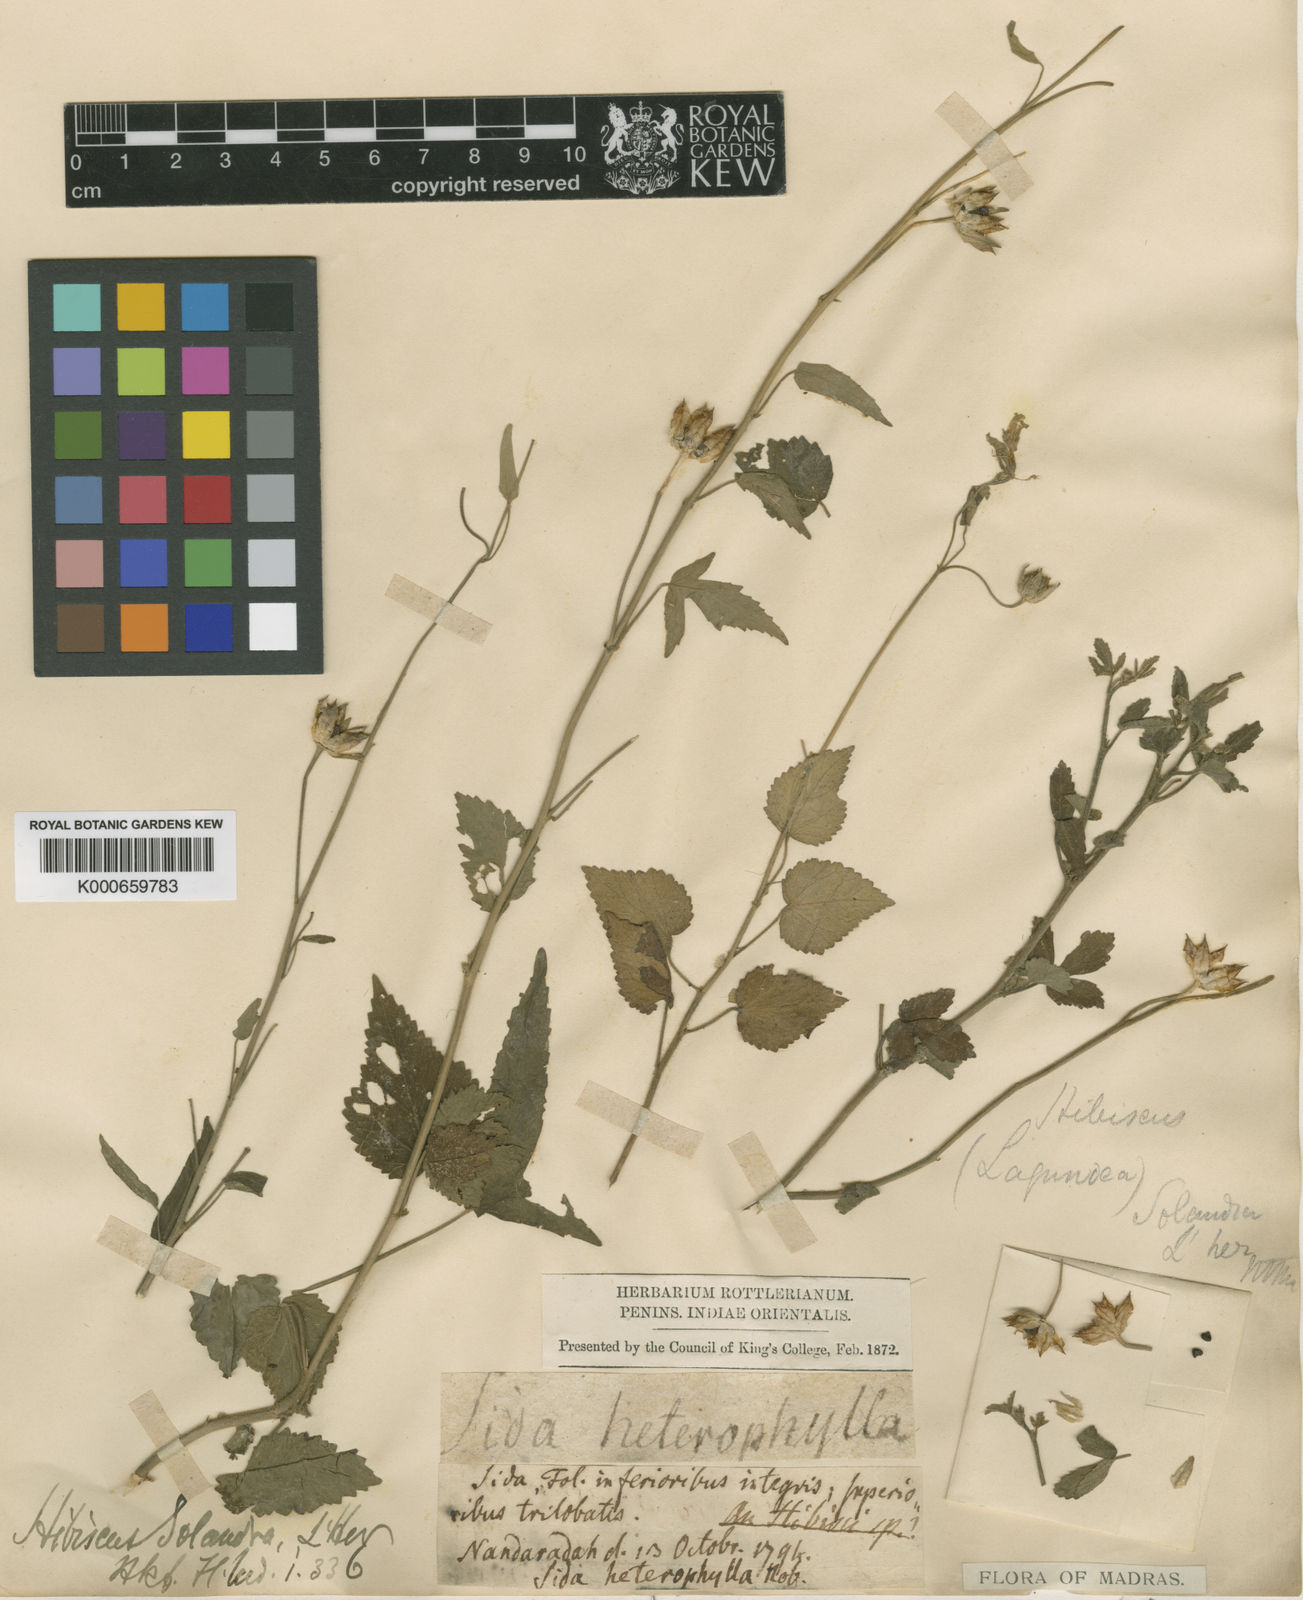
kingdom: Plantae
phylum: Tracheophyta
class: Magnoliopsida
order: Malvales
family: Malvaceae
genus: Hibiscus
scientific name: Hibiscus lobatus
